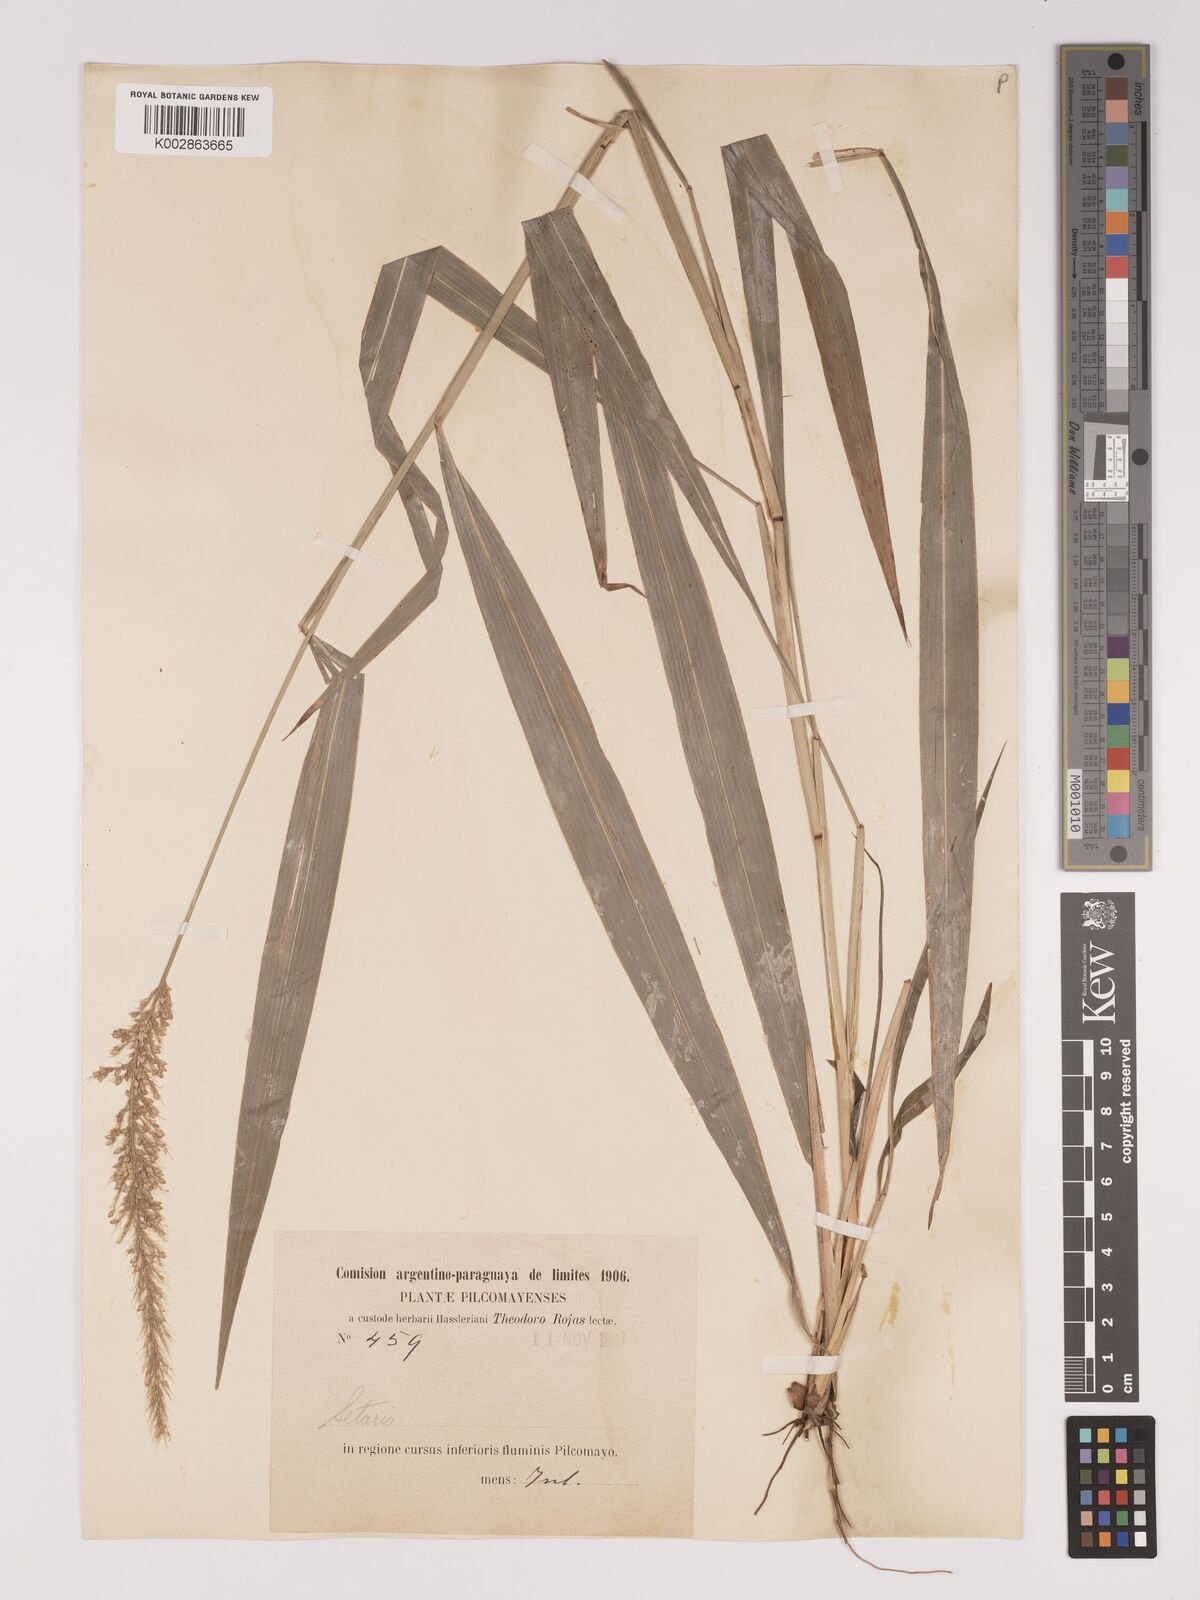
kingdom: Plantae
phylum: Tracheophyta
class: Liliopsida
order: Poales
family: Poaceae
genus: Setaria
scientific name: Setaria vulpiseta
